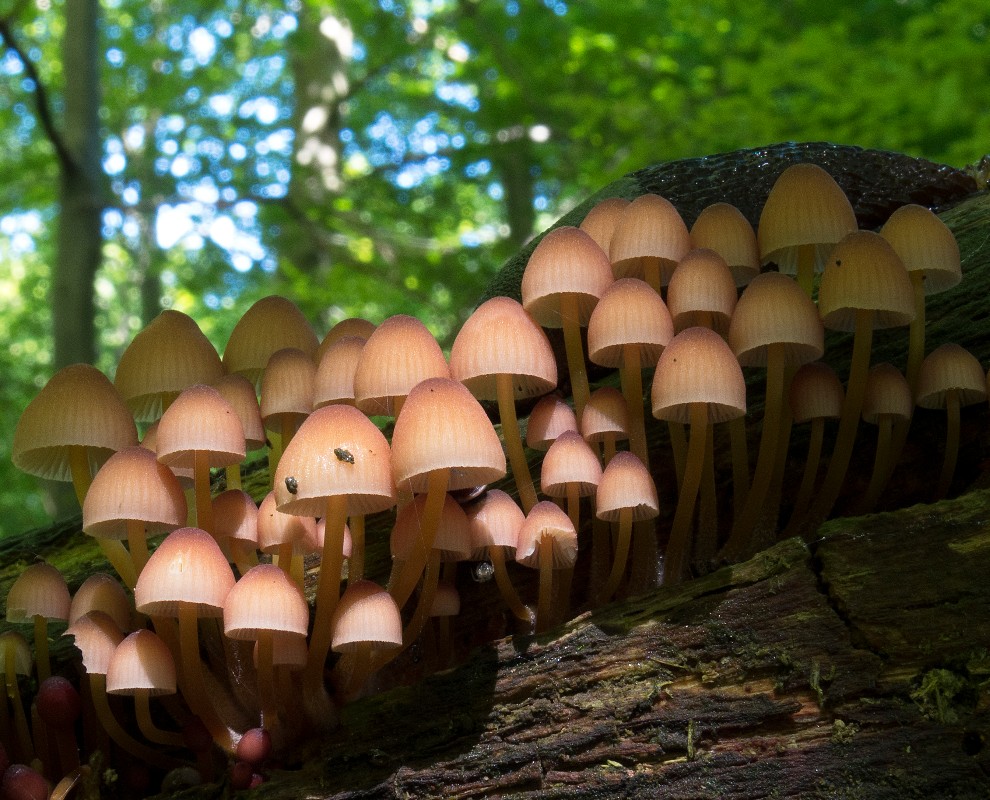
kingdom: Fungi
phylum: Basidiomycota
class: Agaricomycetes
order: Agaricales
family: Mycenaceae
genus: Mycena
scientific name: Mycena renati
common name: smuk huesvamp
